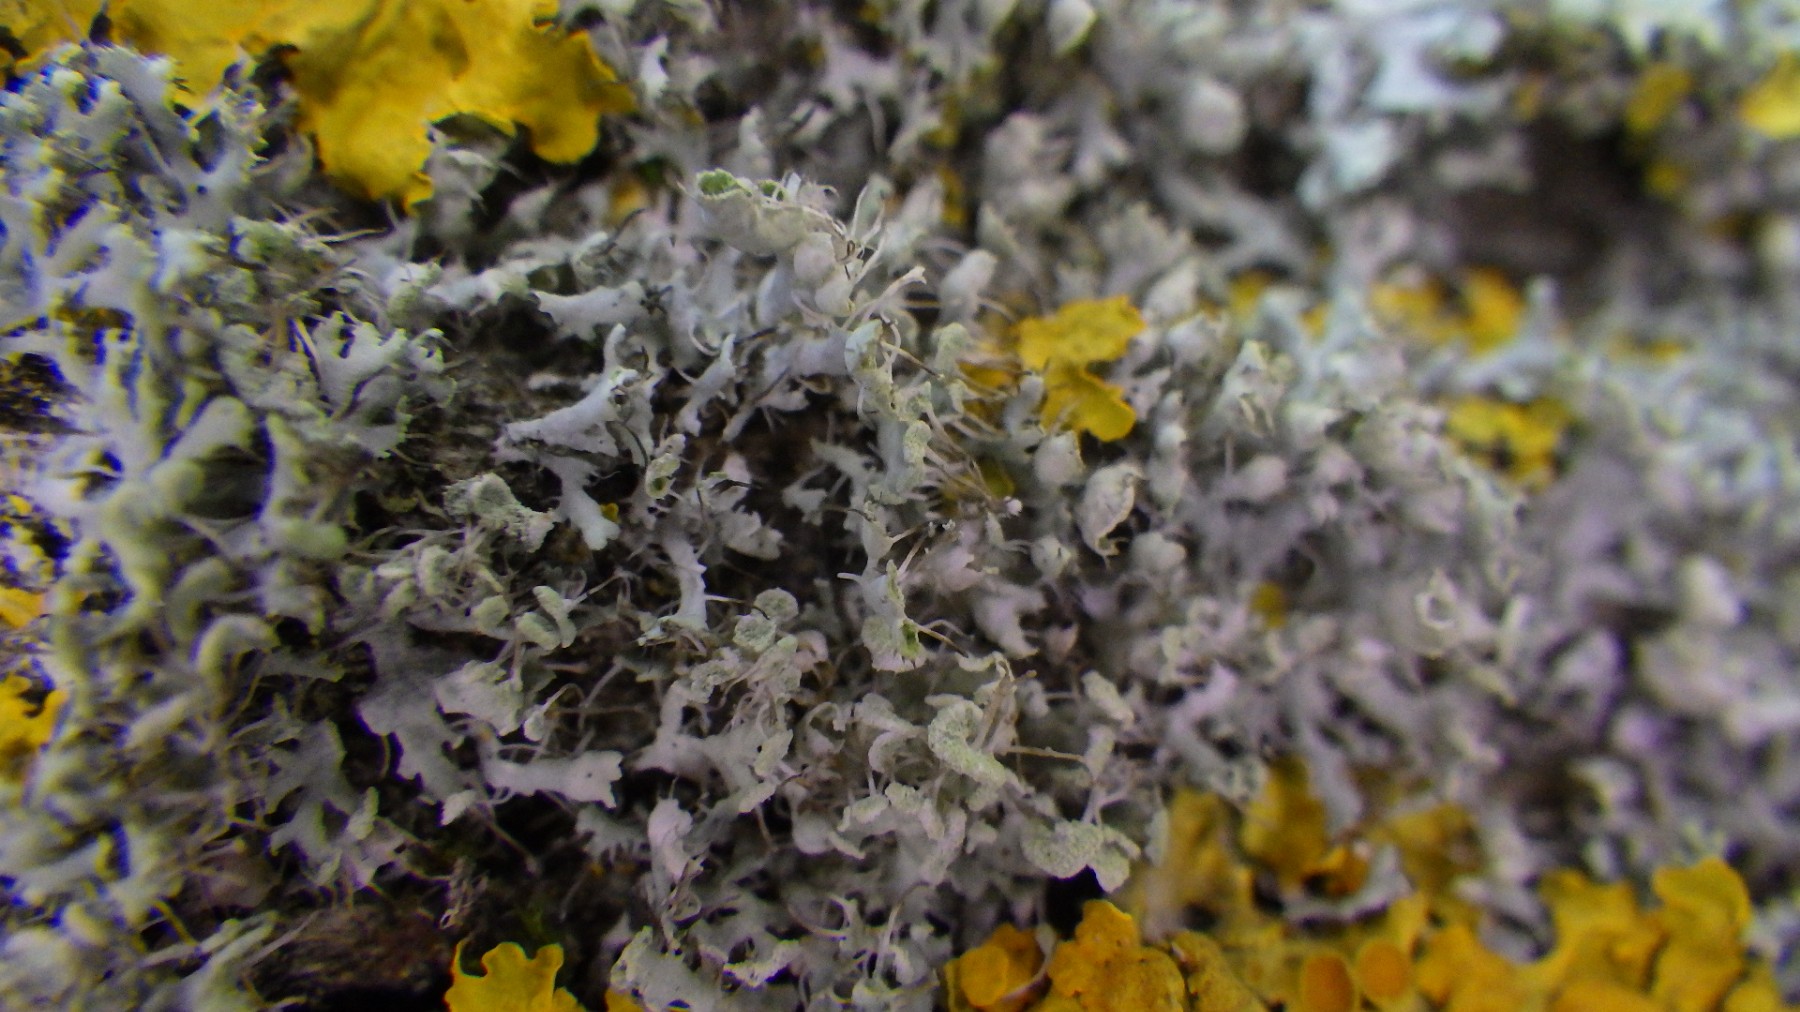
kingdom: Fungi
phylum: Ascomycota
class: Lecanoromycetes
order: Caliciales
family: Physciaceae
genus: Physcia
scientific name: Physcia adscendens
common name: hætte-rosetlav
